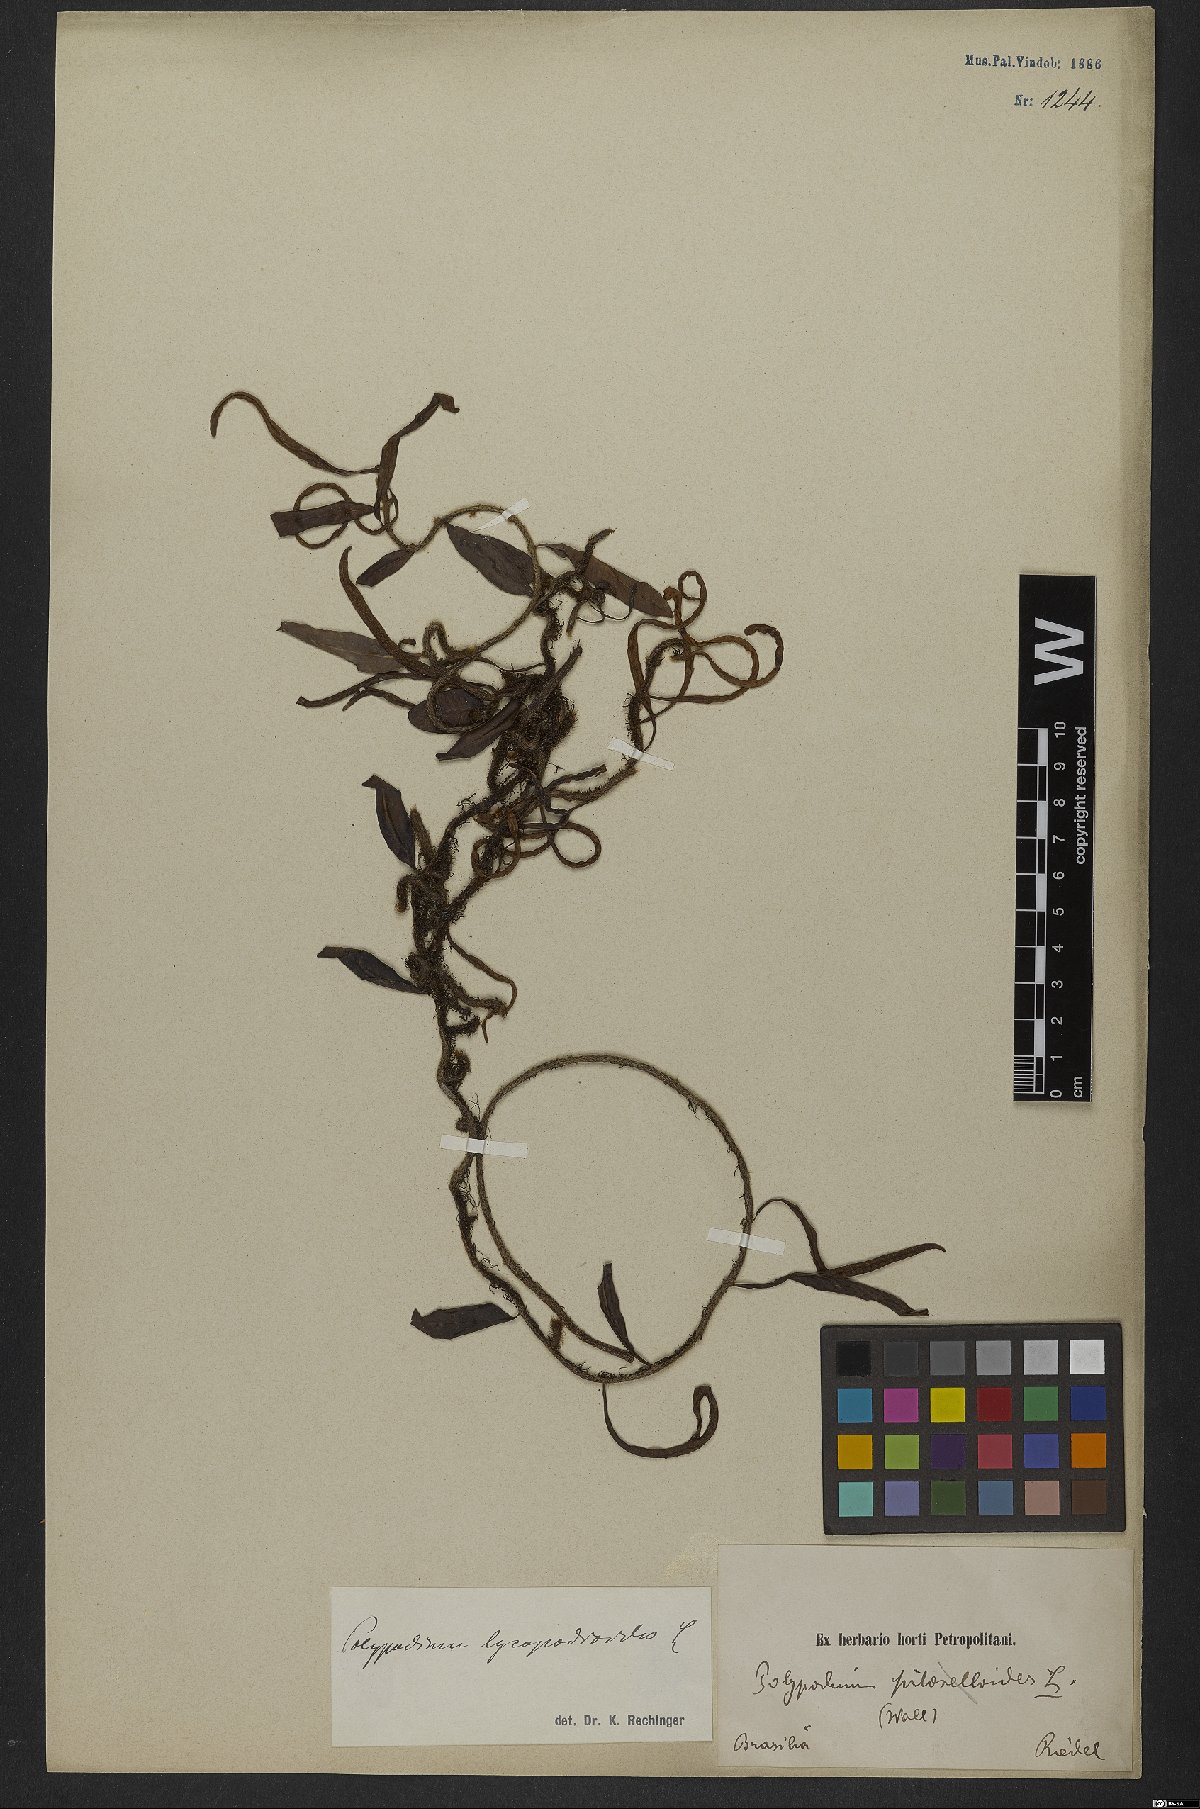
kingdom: Plantae
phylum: Tracheophyta
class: Polypodiopsida
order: Polypodiales
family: Polypodiaceae
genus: Microgramma
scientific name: Microgramma lycopodioides
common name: Bastard catclaw
